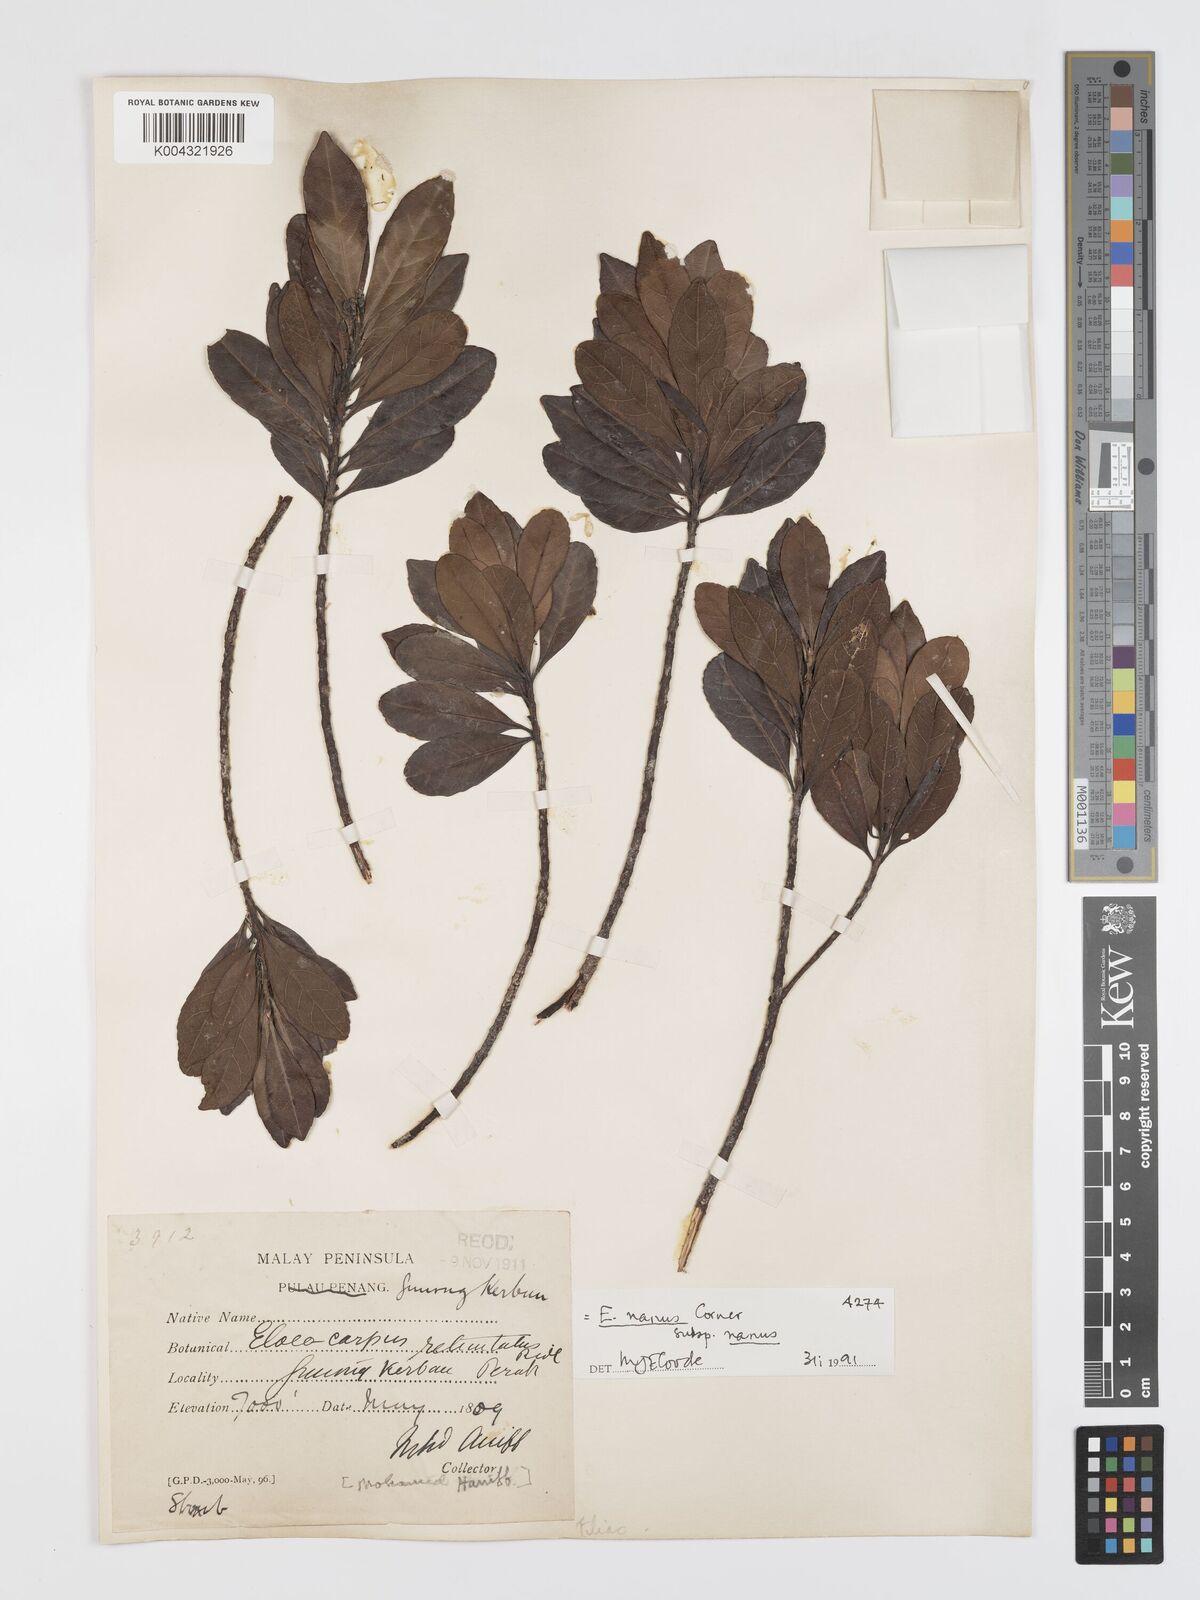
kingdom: Plantae
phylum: Tracheophyta
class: Magnoliopsida
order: Oxalidales
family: Elaeocarpaceae
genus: Elaeocarpus
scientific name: Elaeocarpus nanus
